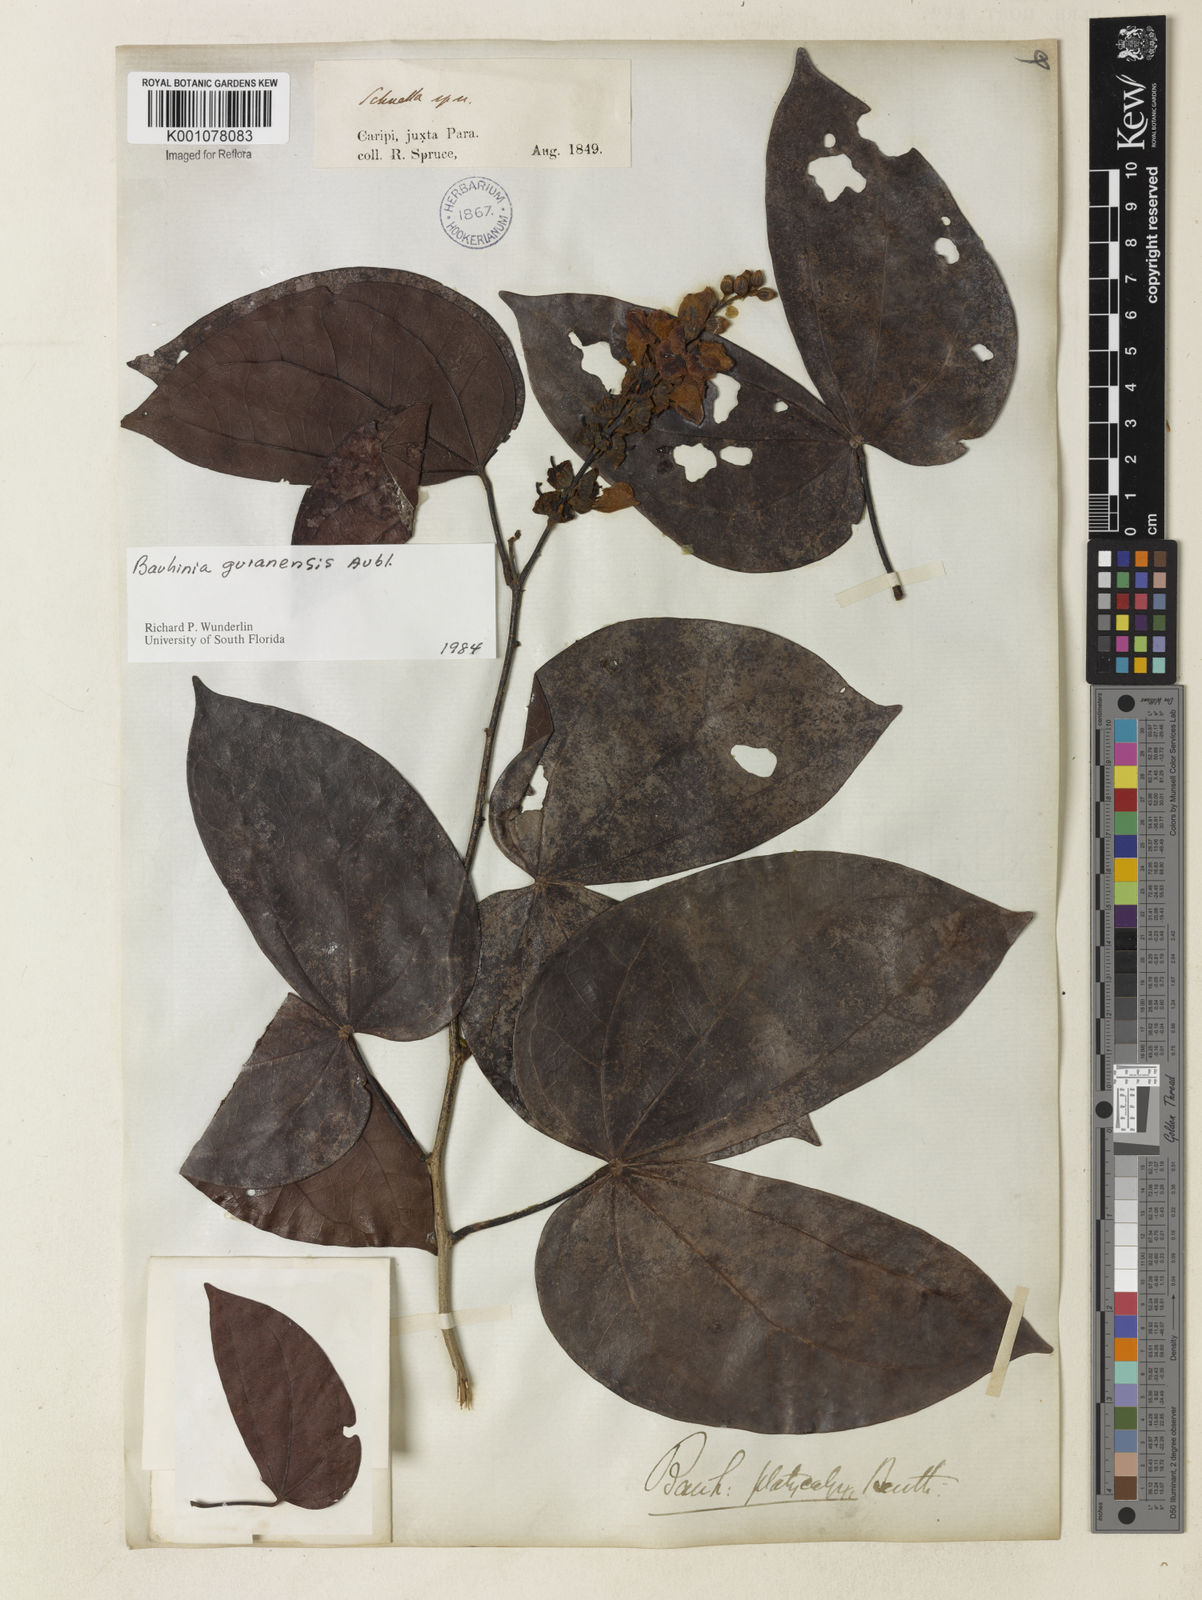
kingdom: Plantae
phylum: Tracheophyta
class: Magnoliopsida
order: Fabales
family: Fabaceae
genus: Schnella
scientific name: Schnella guianensis
